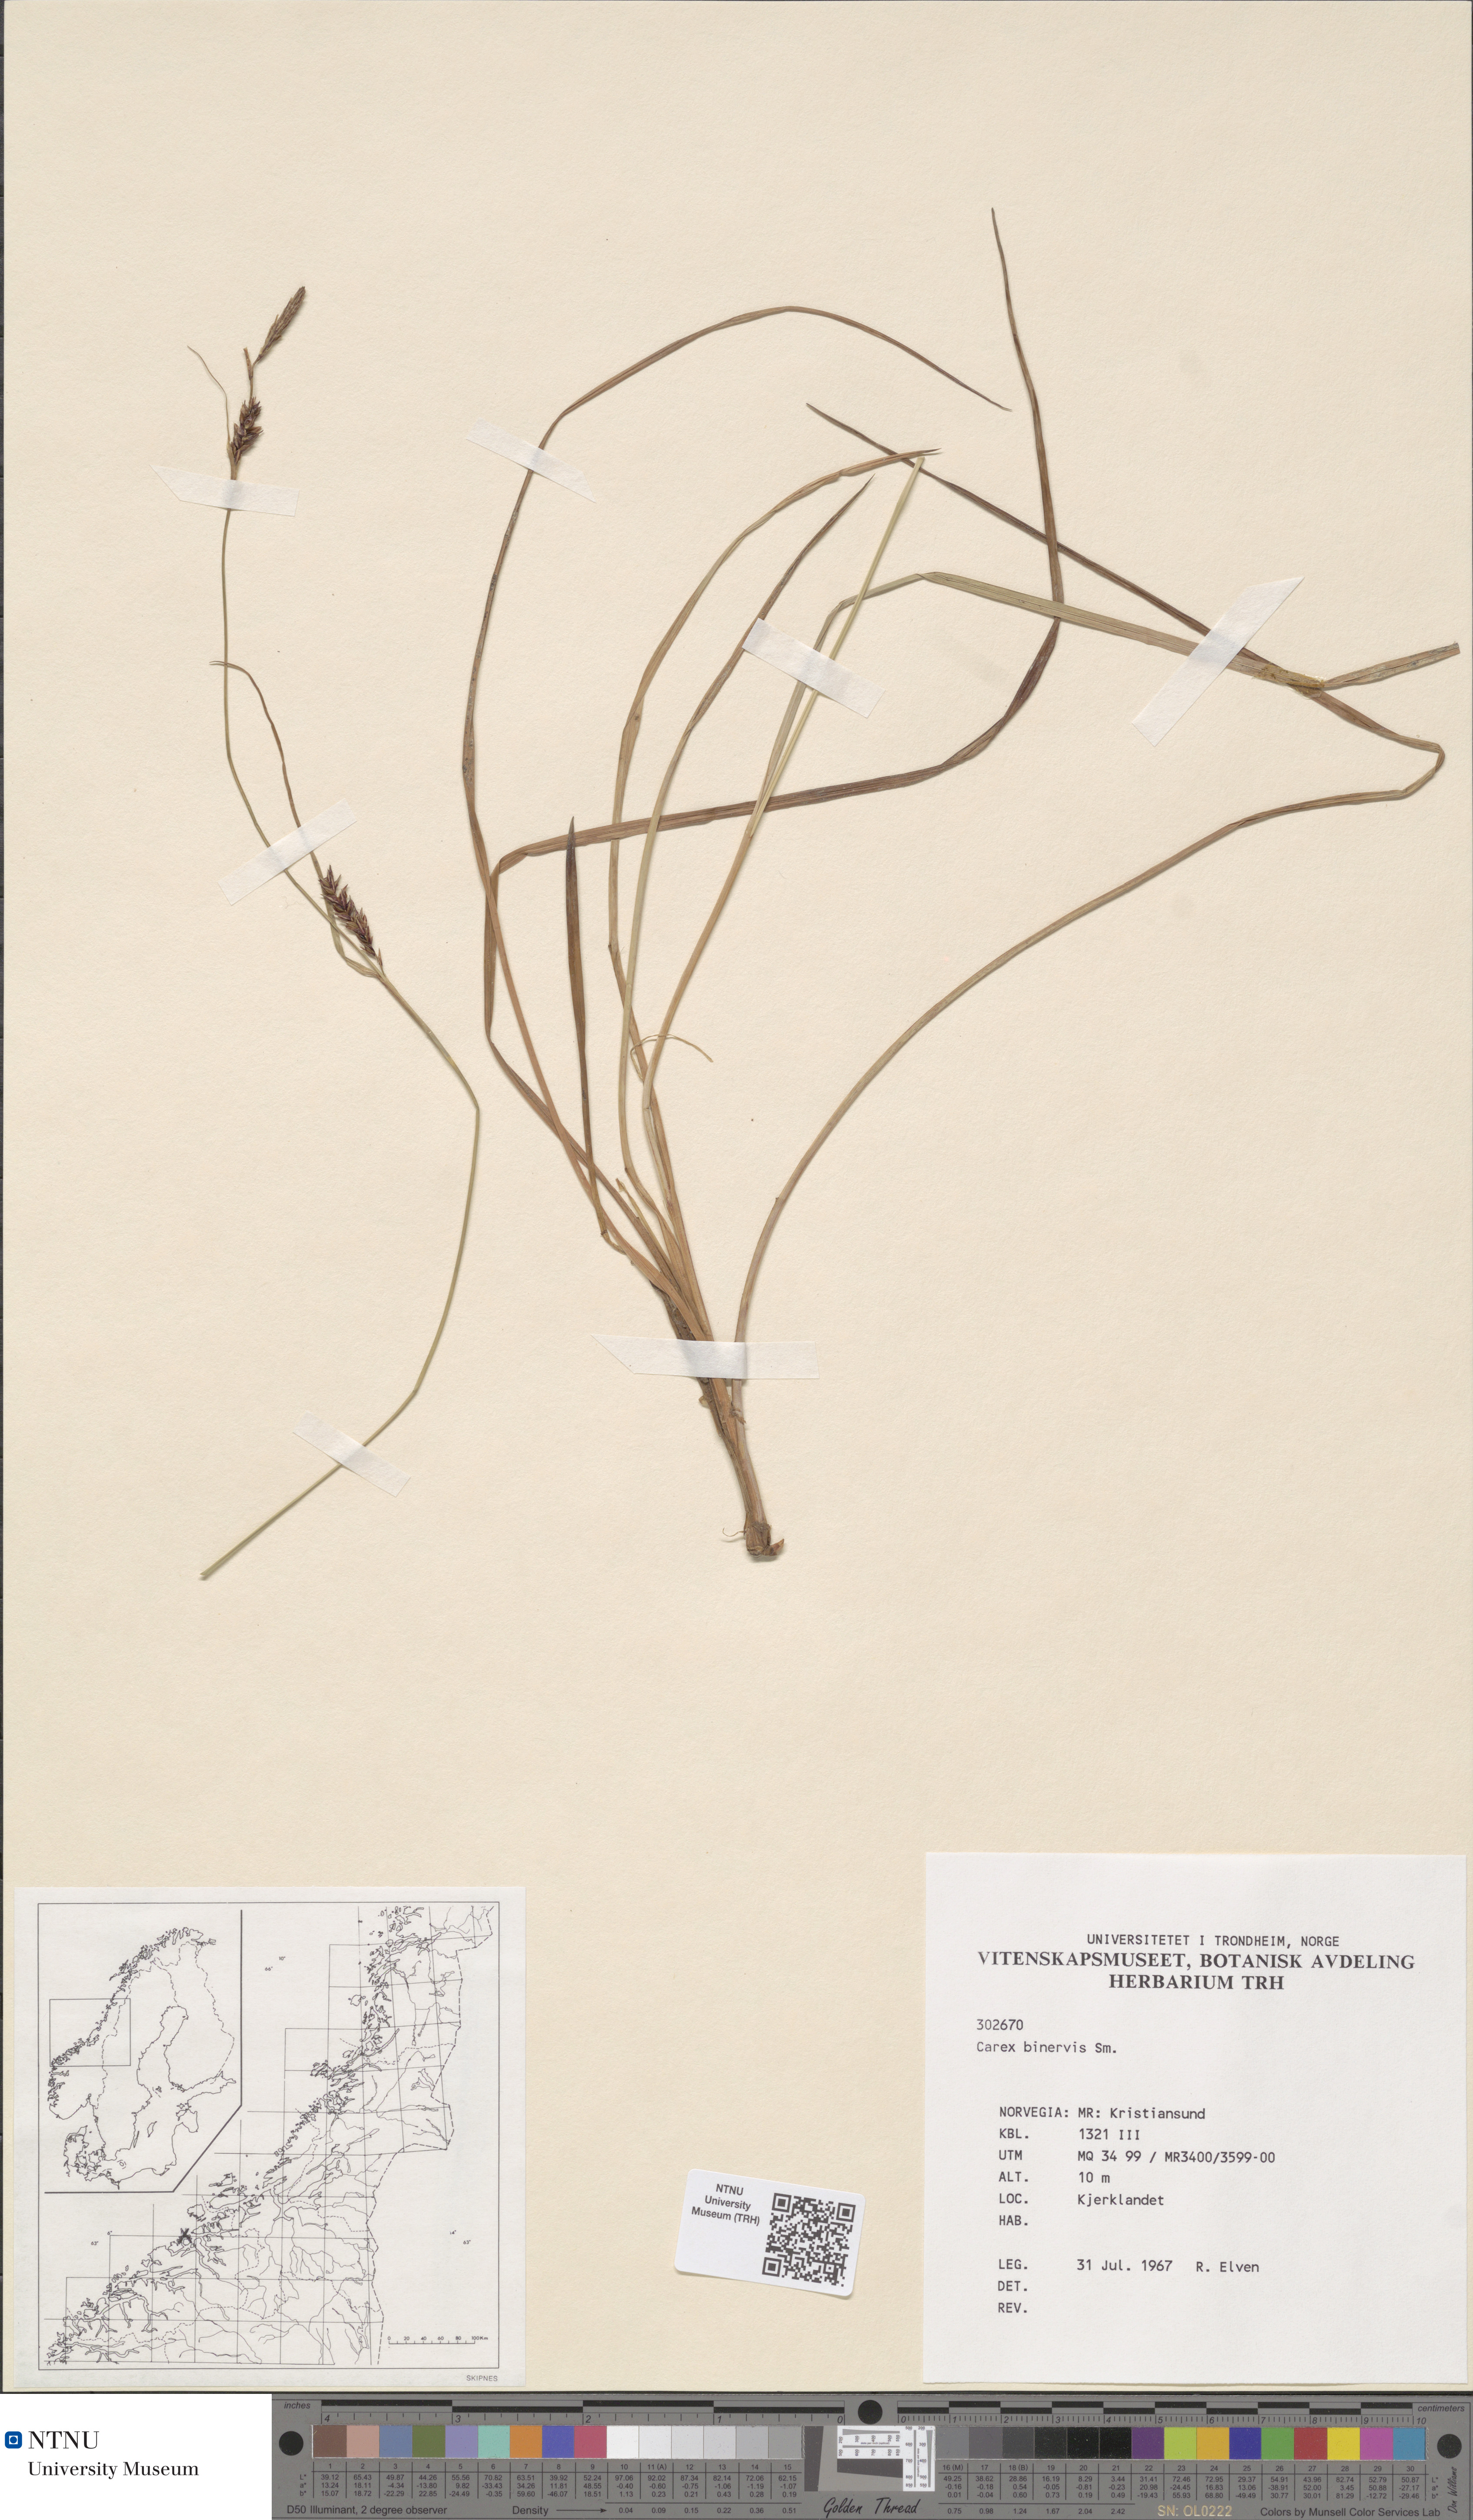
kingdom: Plantae
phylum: Tracheophyta
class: Liliopsida
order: Poales
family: Cyperaceae
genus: Carex
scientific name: Carex binervis
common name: Green-ribbed sedge
